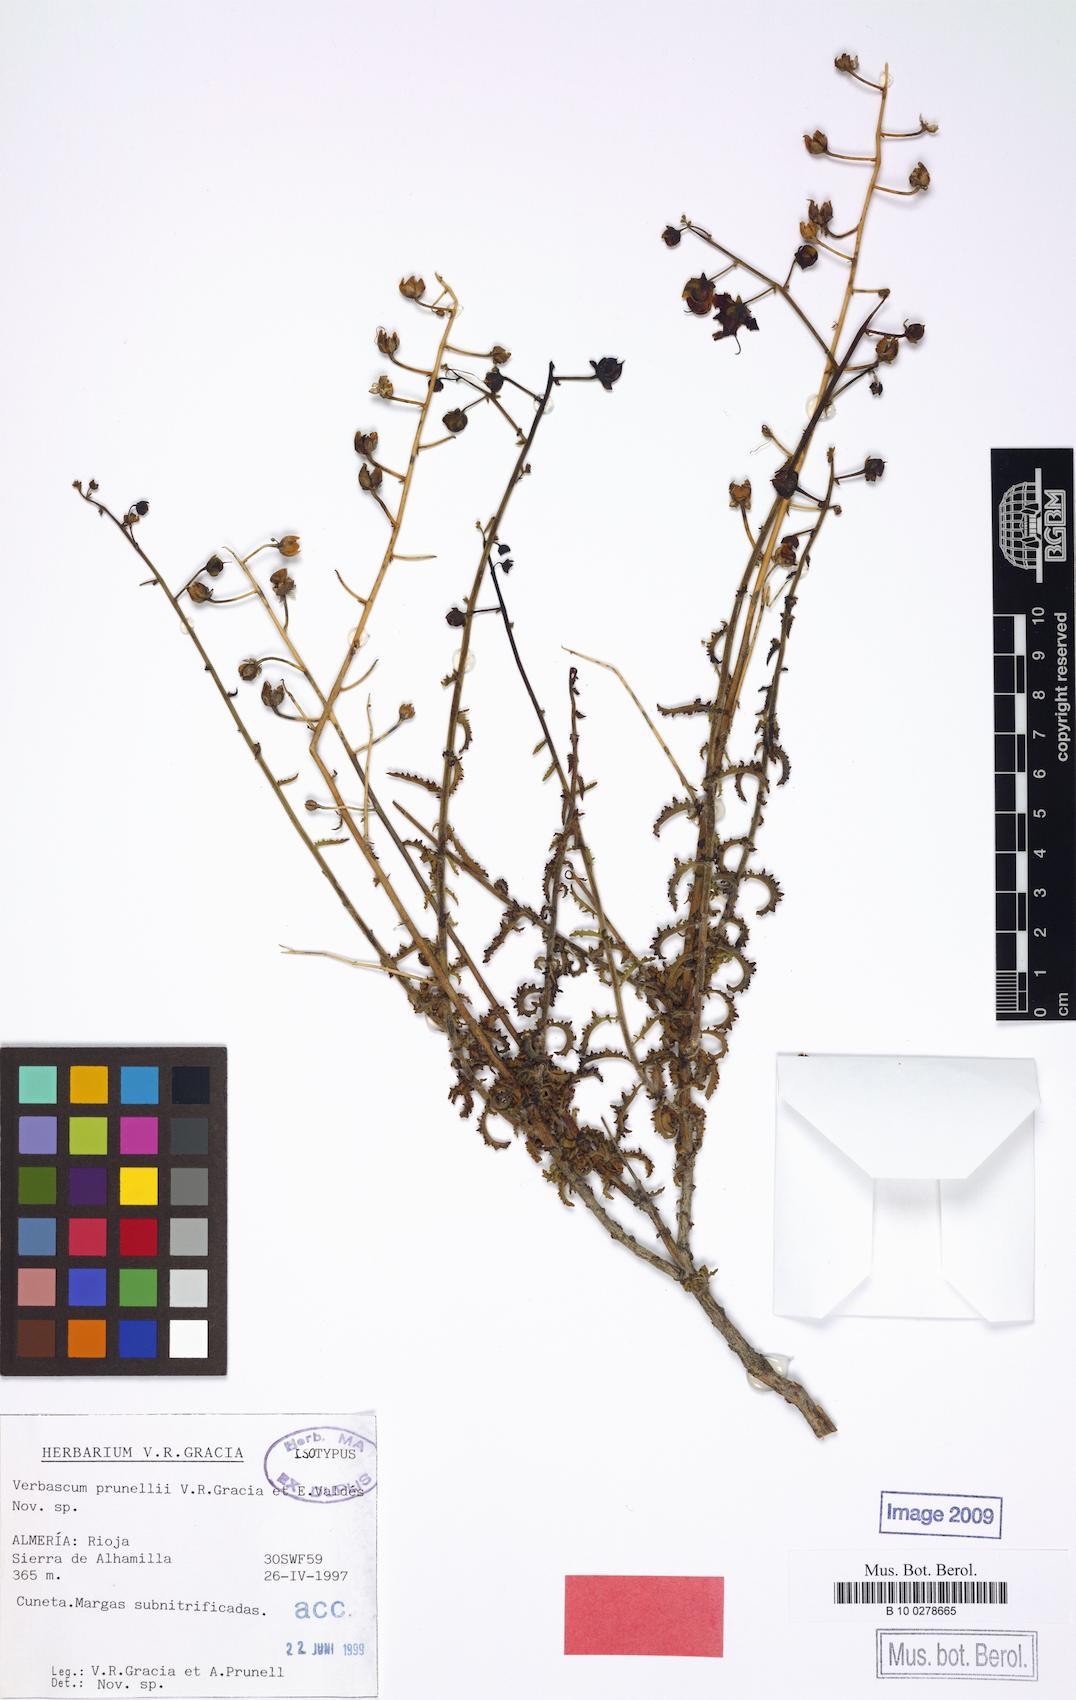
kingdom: Plantae
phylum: Tracheophyta
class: Magnoliopsida
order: Lamiales
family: Scrophulariaceae
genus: Verbascum
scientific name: Verbascum prunellii
